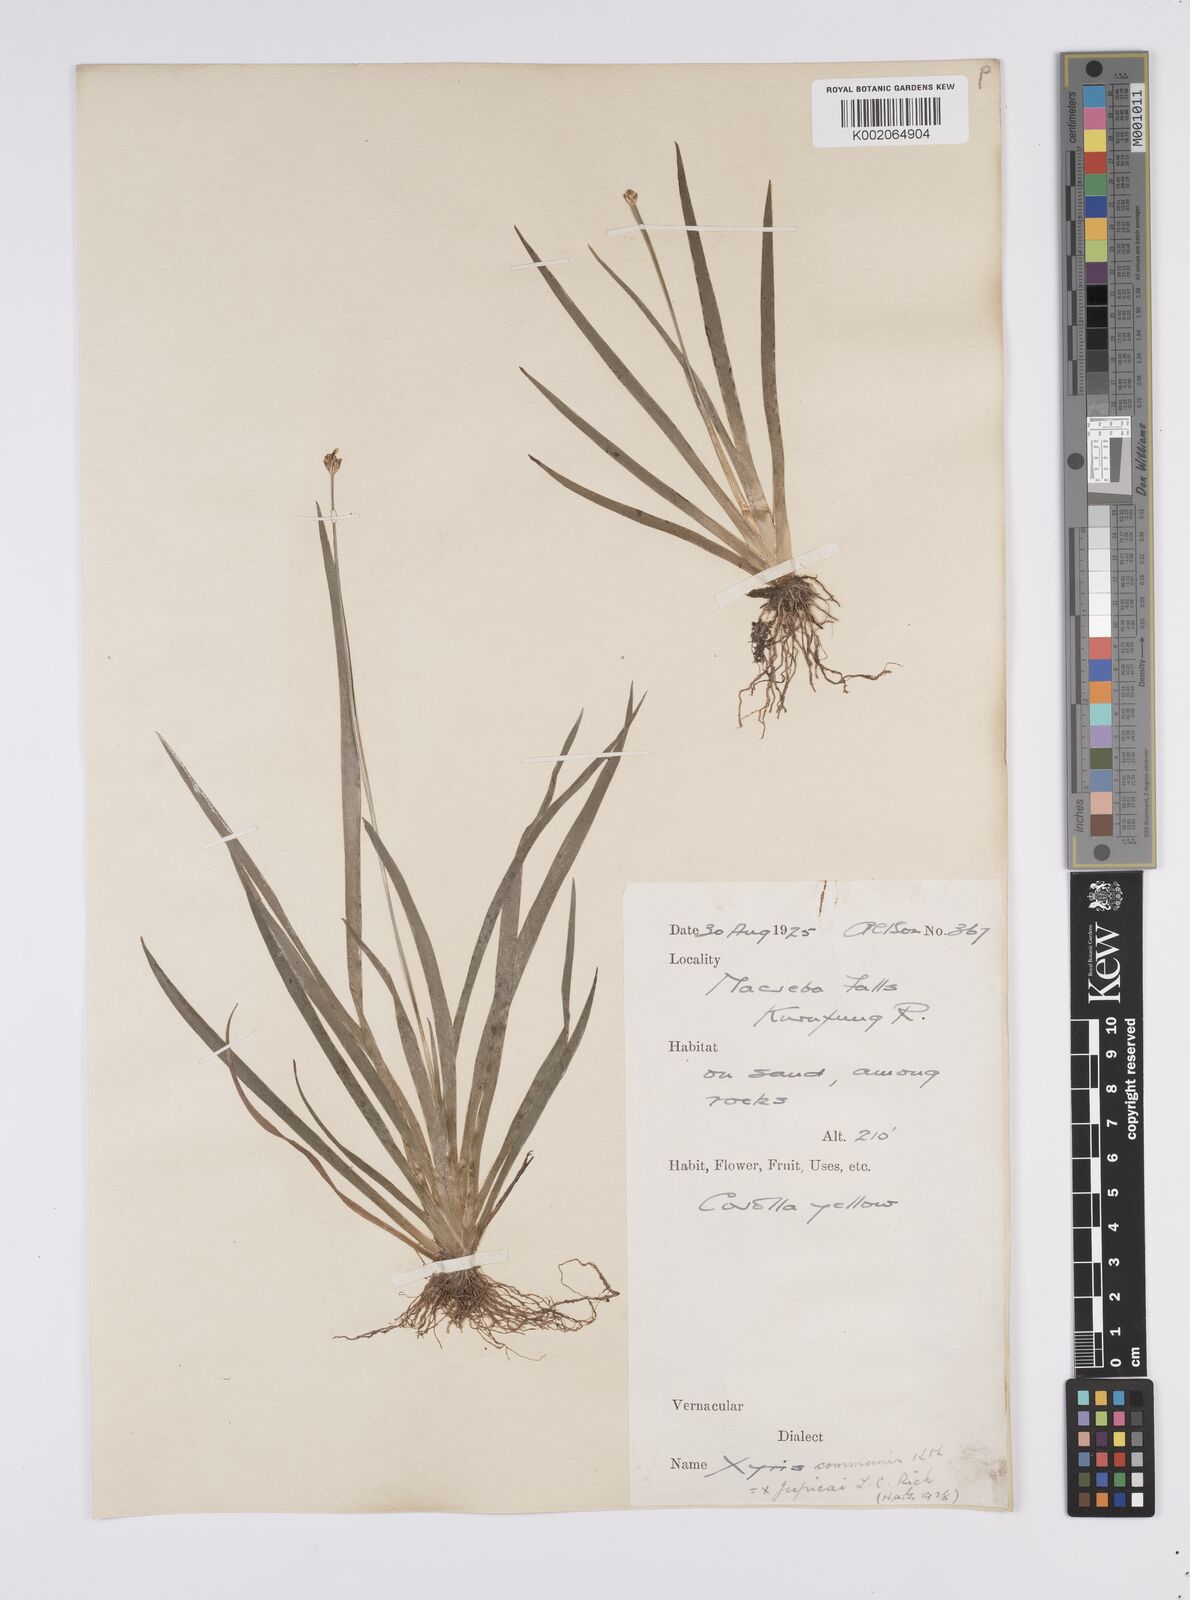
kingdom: Plantae
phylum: Tracheophyta
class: Liliopsida
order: Poales
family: Xyridaceae
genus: Xyris
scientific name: Xyris jupicai
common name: Richard's yelloweyed grass
